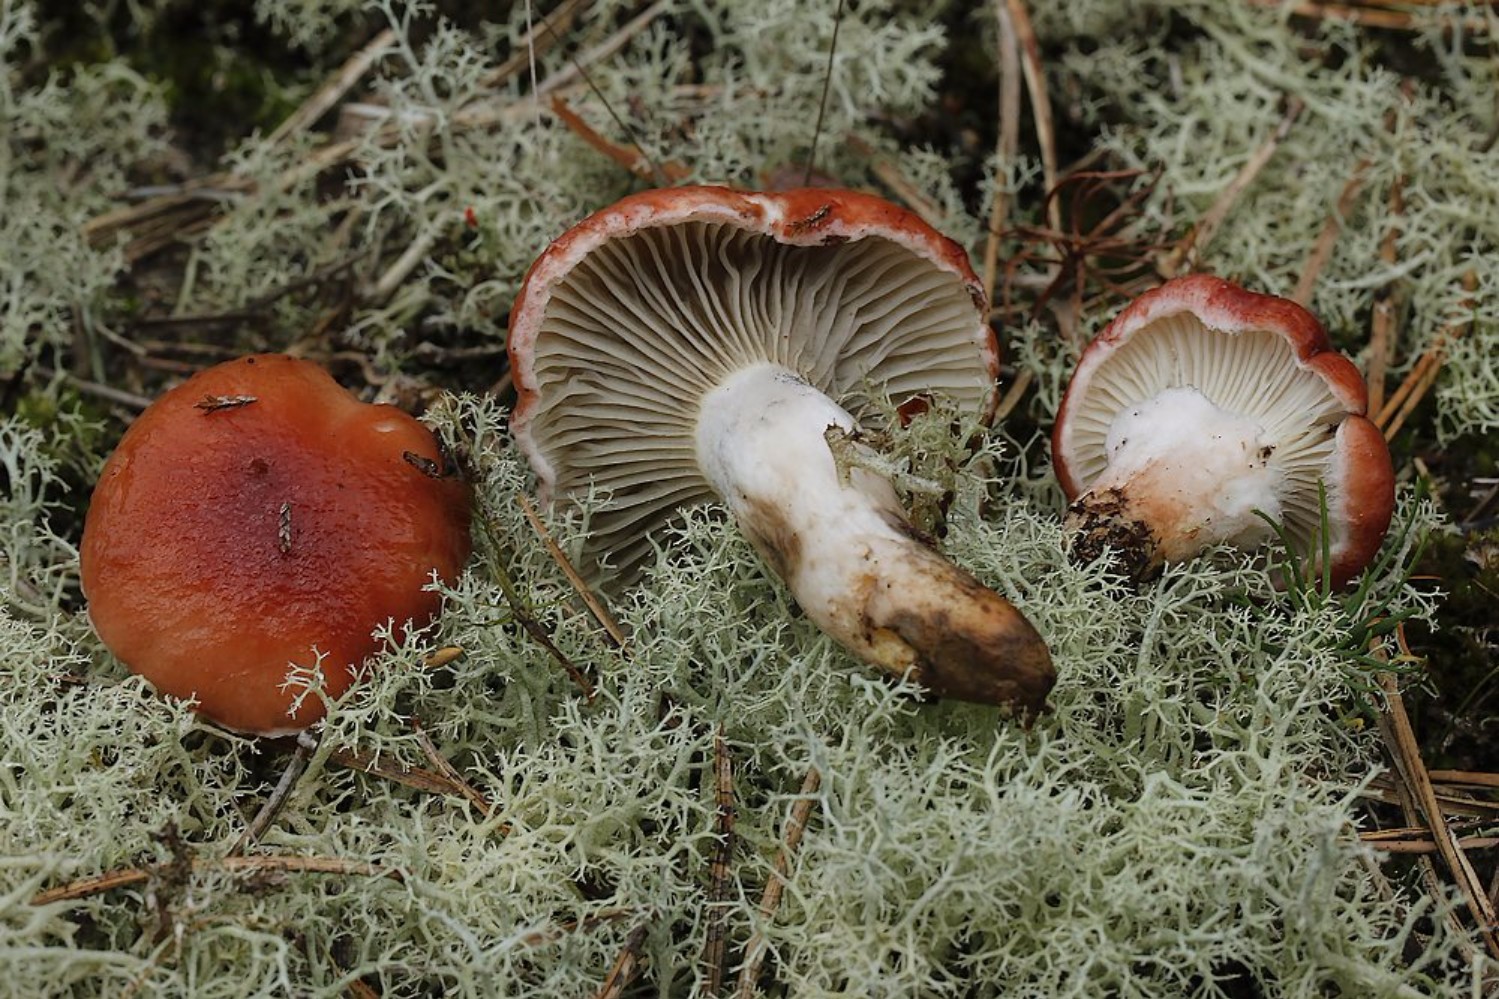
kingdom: Fungi
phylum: Basidiomycota
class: Agaricomycetes
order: Boletales
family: Gomphidiaceae
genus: Gomphidius
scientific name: Gomphidius roseus
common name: rosenrød slimslør
